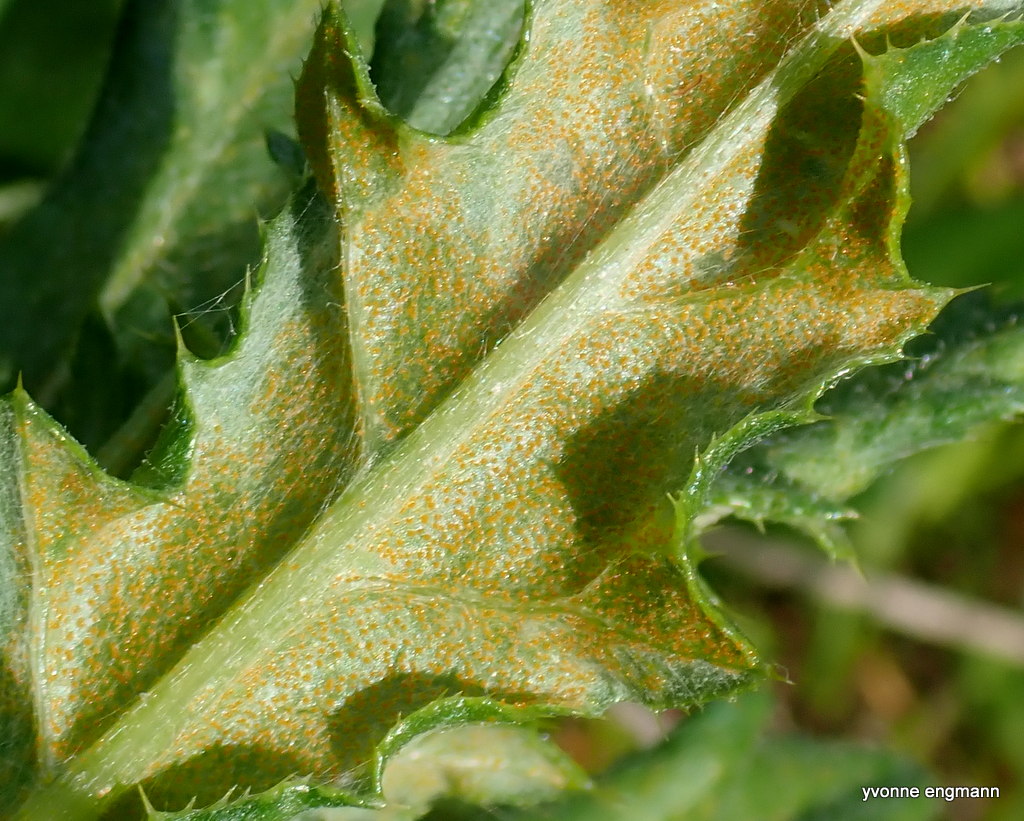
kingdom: Fungi
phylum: Basidiomycota
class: Pucciniomycetes
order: Pucciniales
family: Pucciniaceae
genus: Puccinia
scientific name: Puccinia suaveolens
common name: tidsel-tvecellerust
